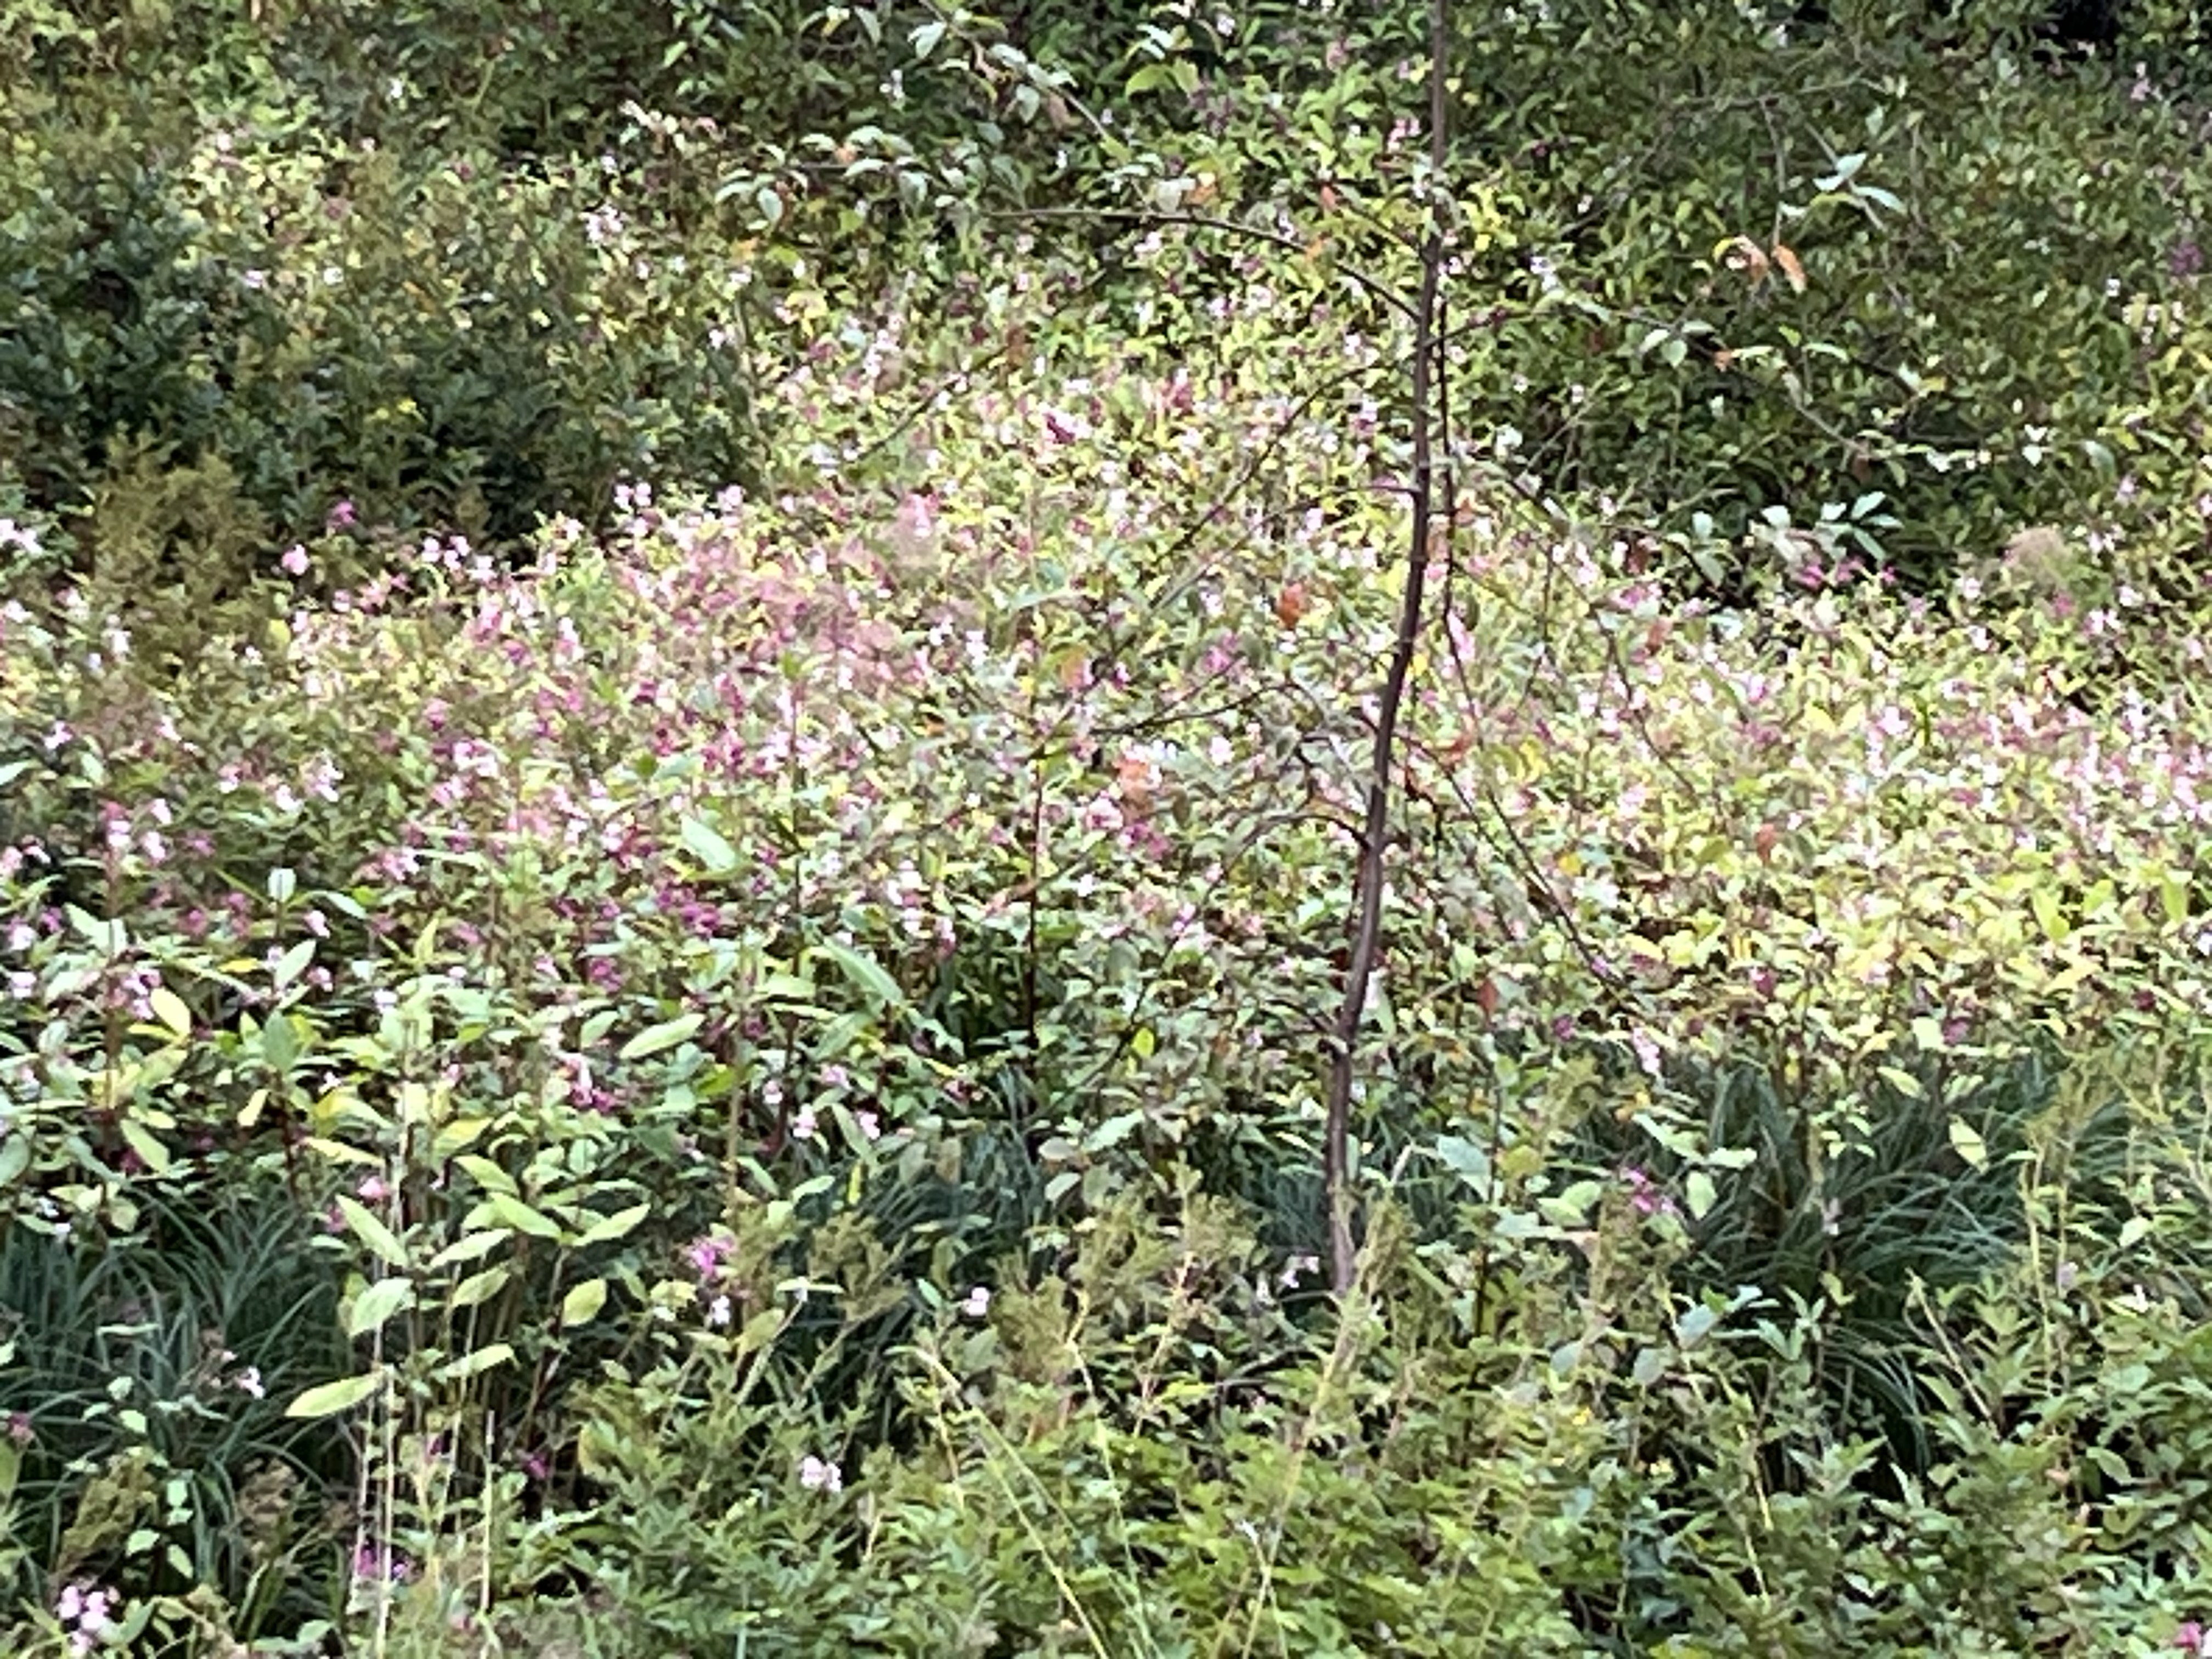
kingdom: Plantae
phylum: Tracheophyta
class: Magnoliopsida
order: Ericales
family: Balsaminaceae
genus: Impatiens
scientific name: Impatiens glandulifera
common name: Himalayan balsam
